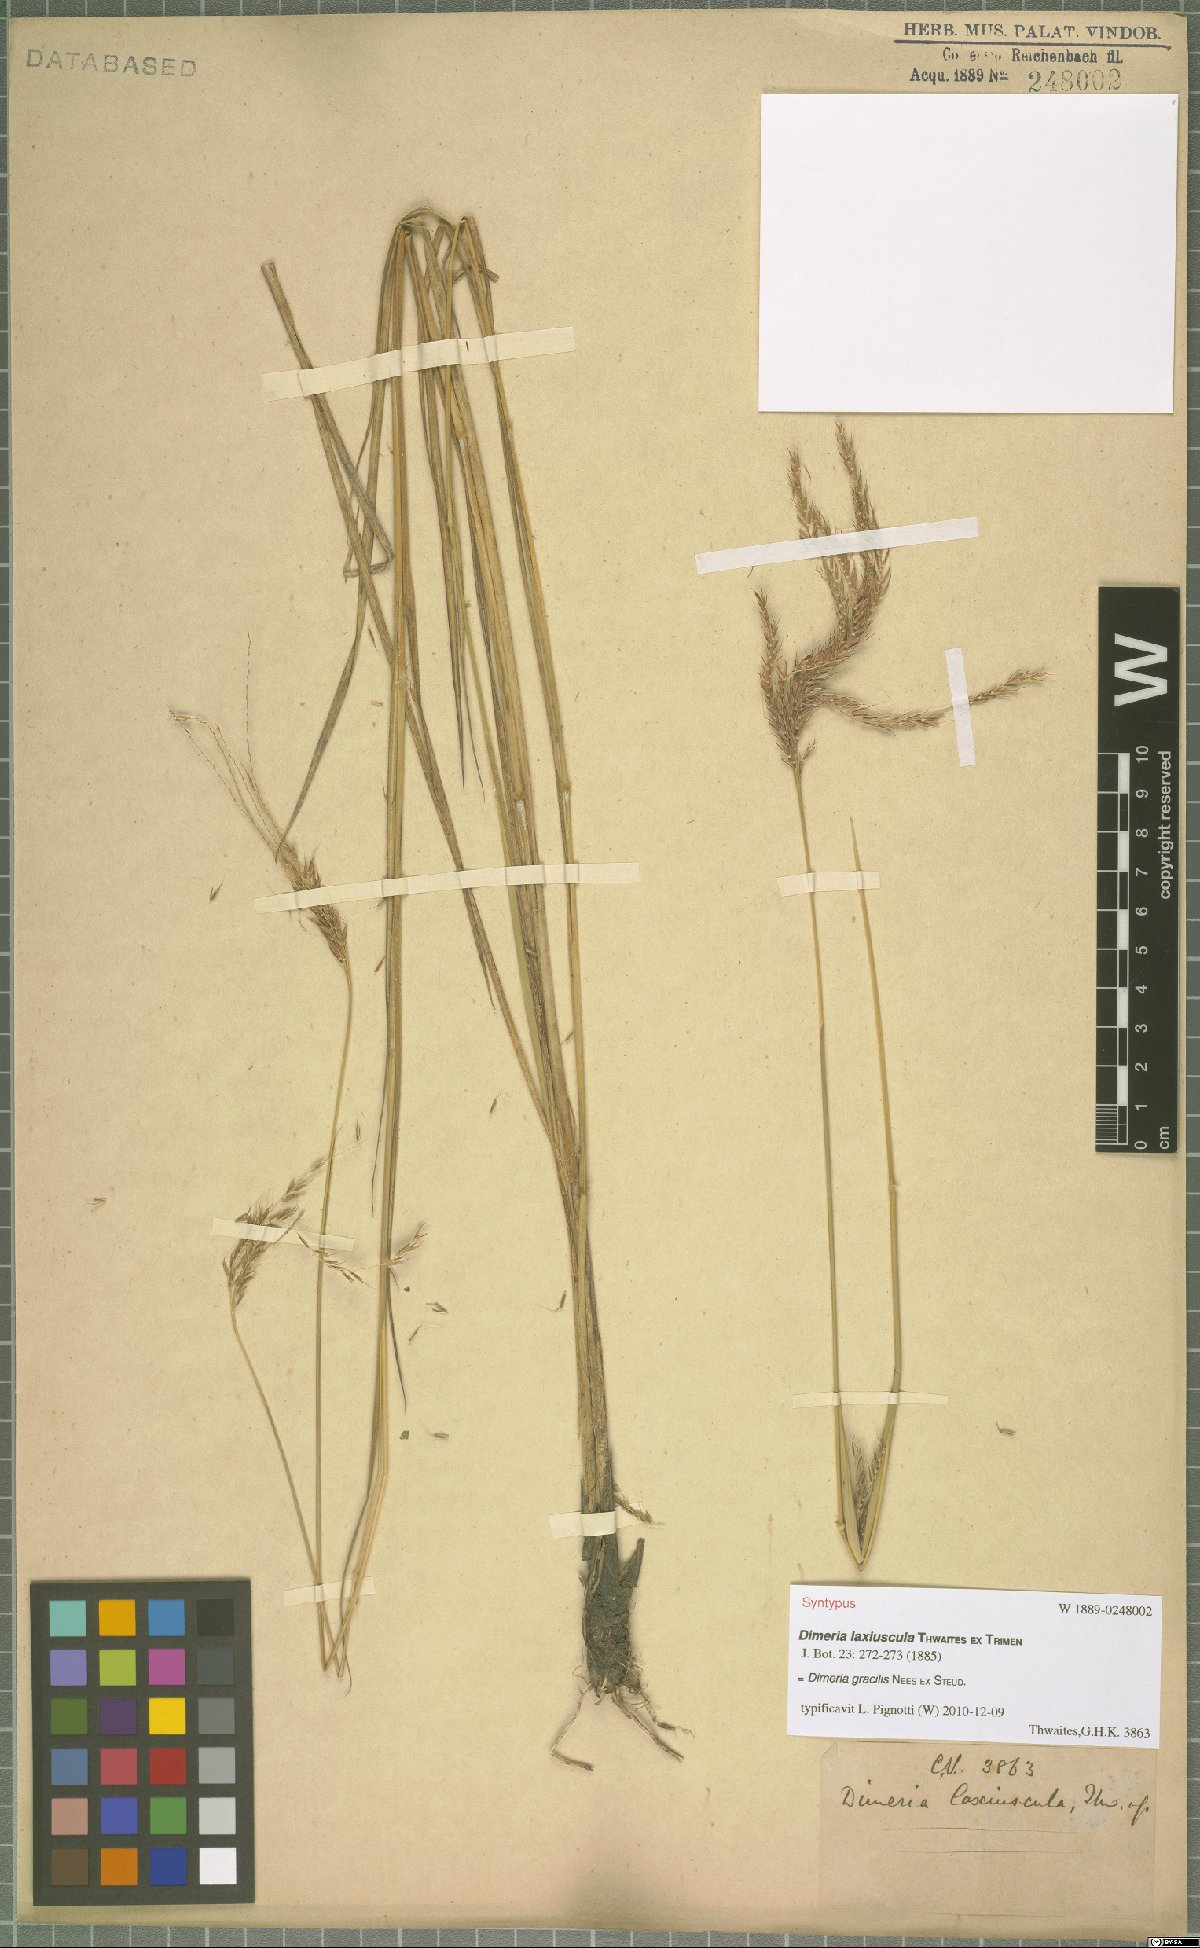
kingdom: Plantae
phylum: Tracheophyta
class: Liliopsida
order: Poales
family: Poaceae
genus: Dimeria
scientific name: Dimeria gracilis
